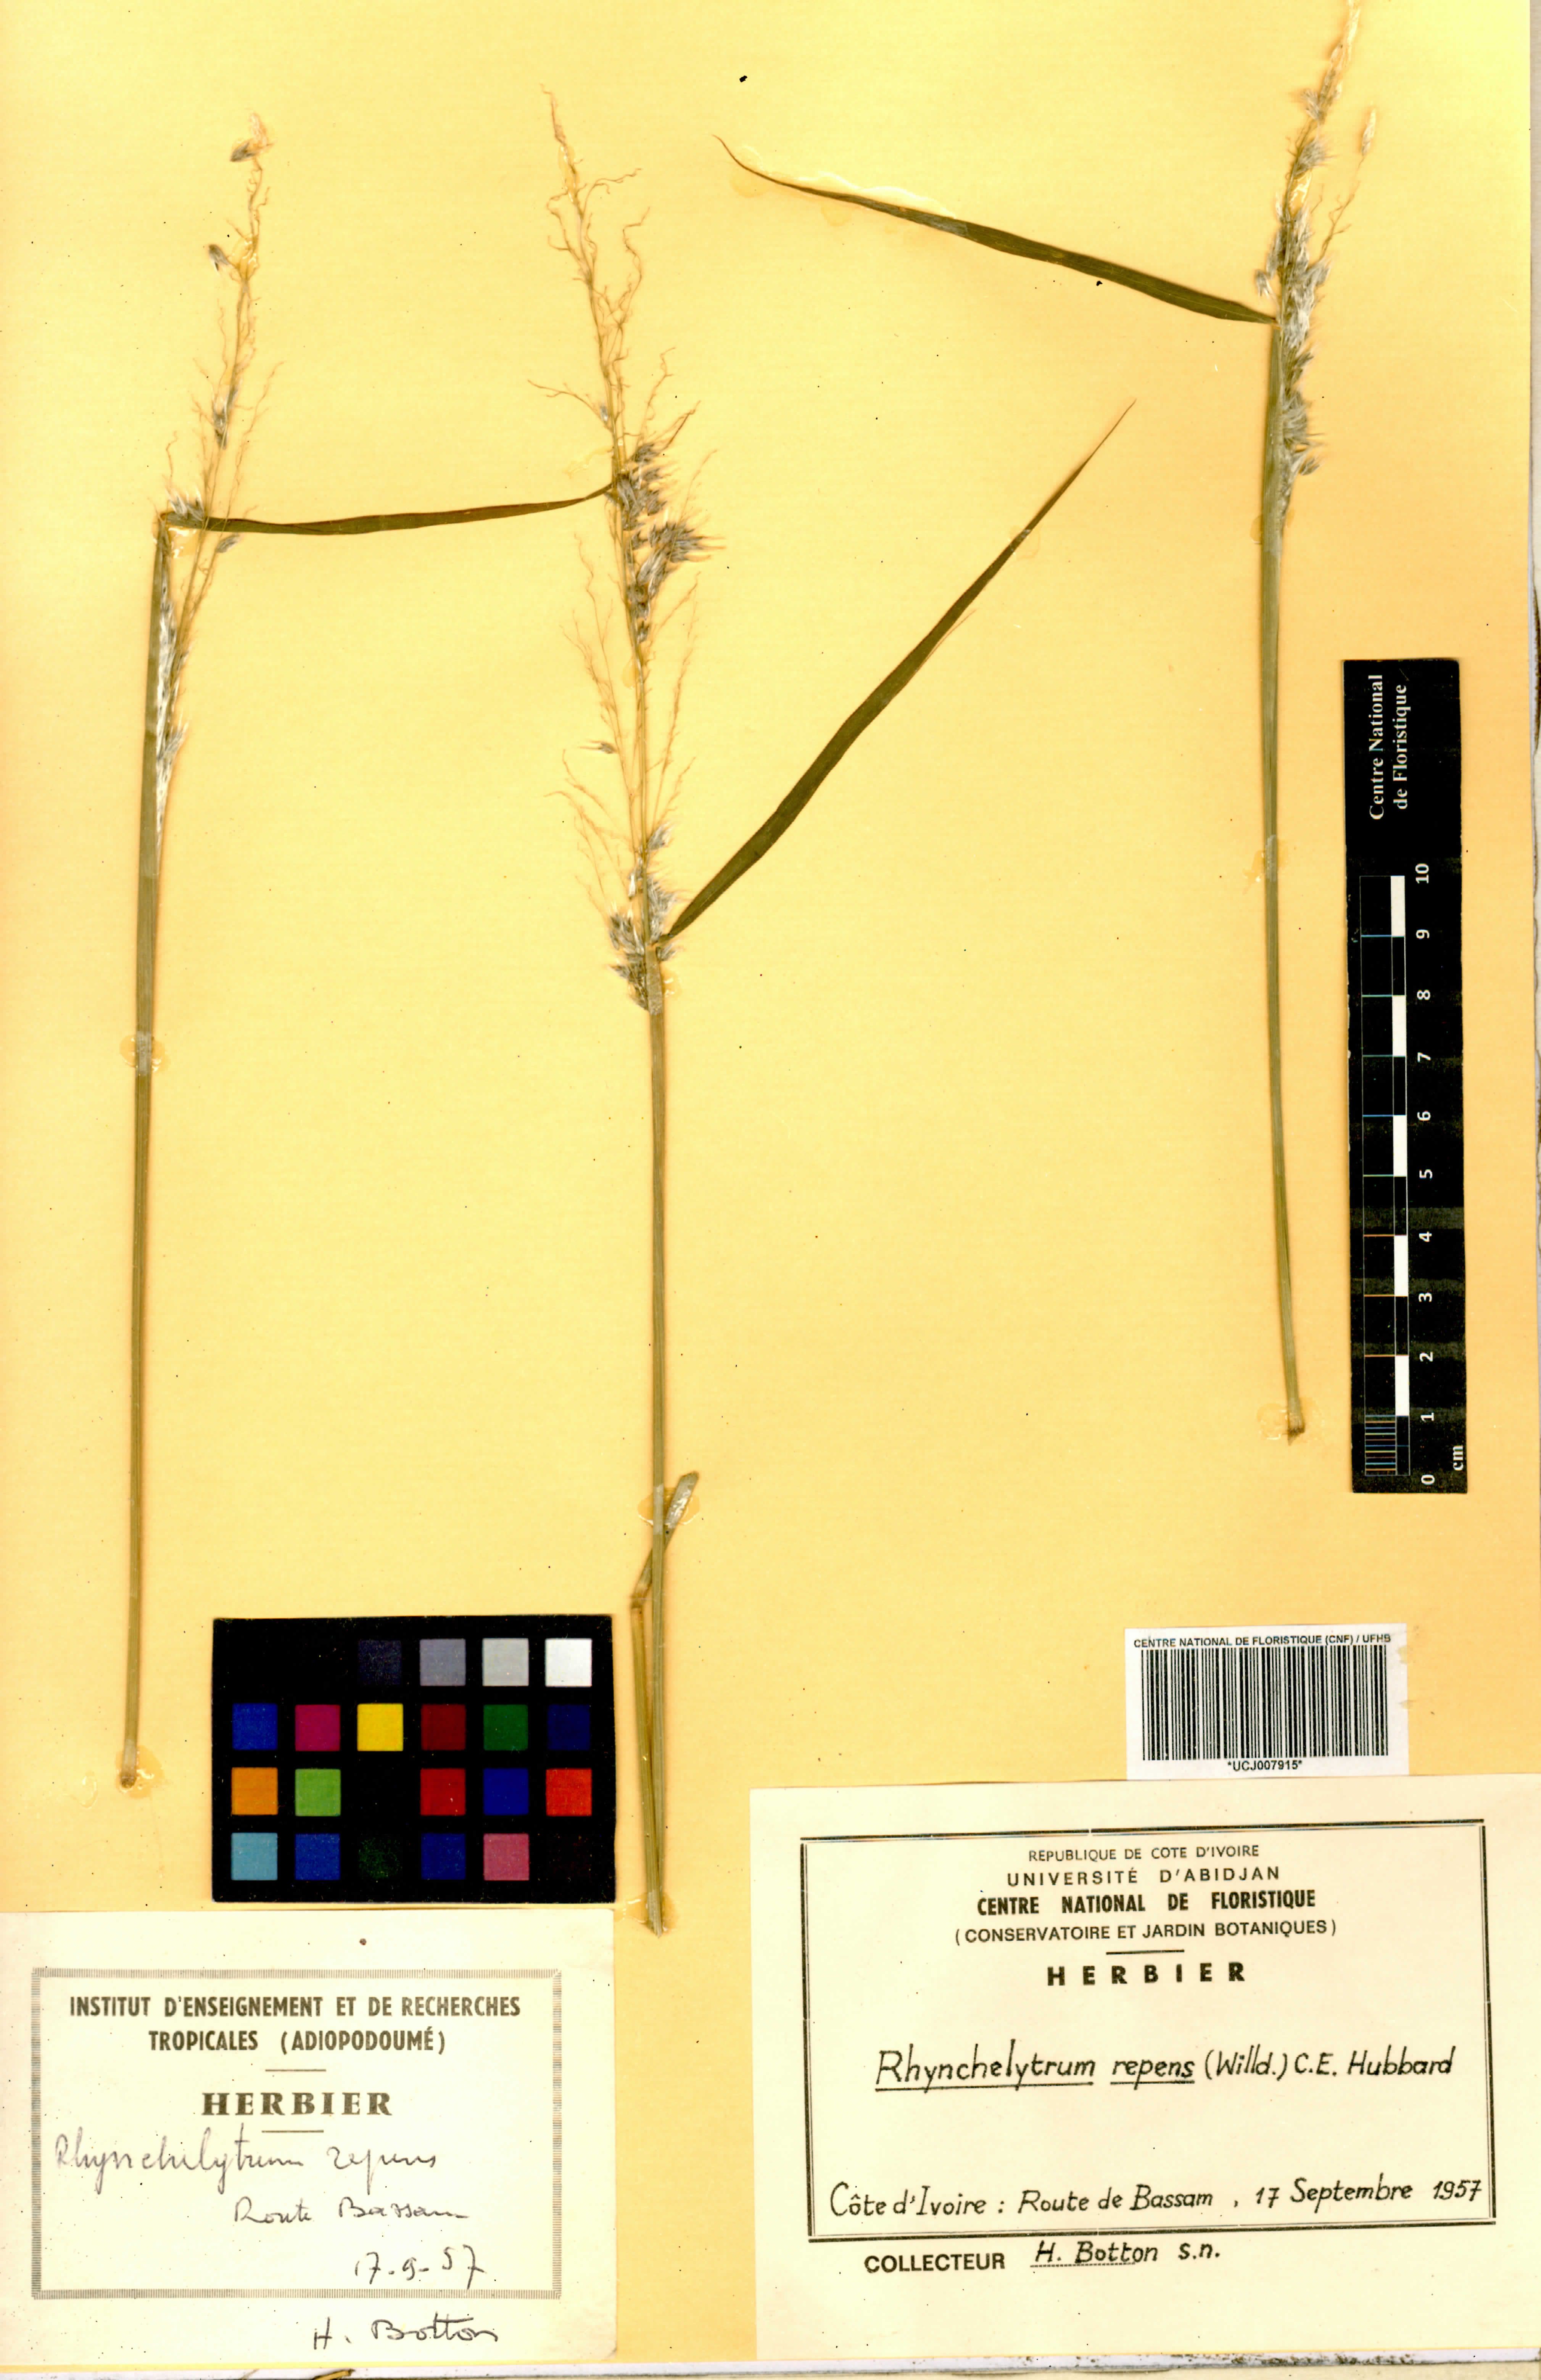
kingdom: Plantae
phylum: Tracheophyta
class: Liliopsida
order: Poales
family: Poaceae
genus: Melinis
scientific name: Melinis repens
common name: Rose natal grass
